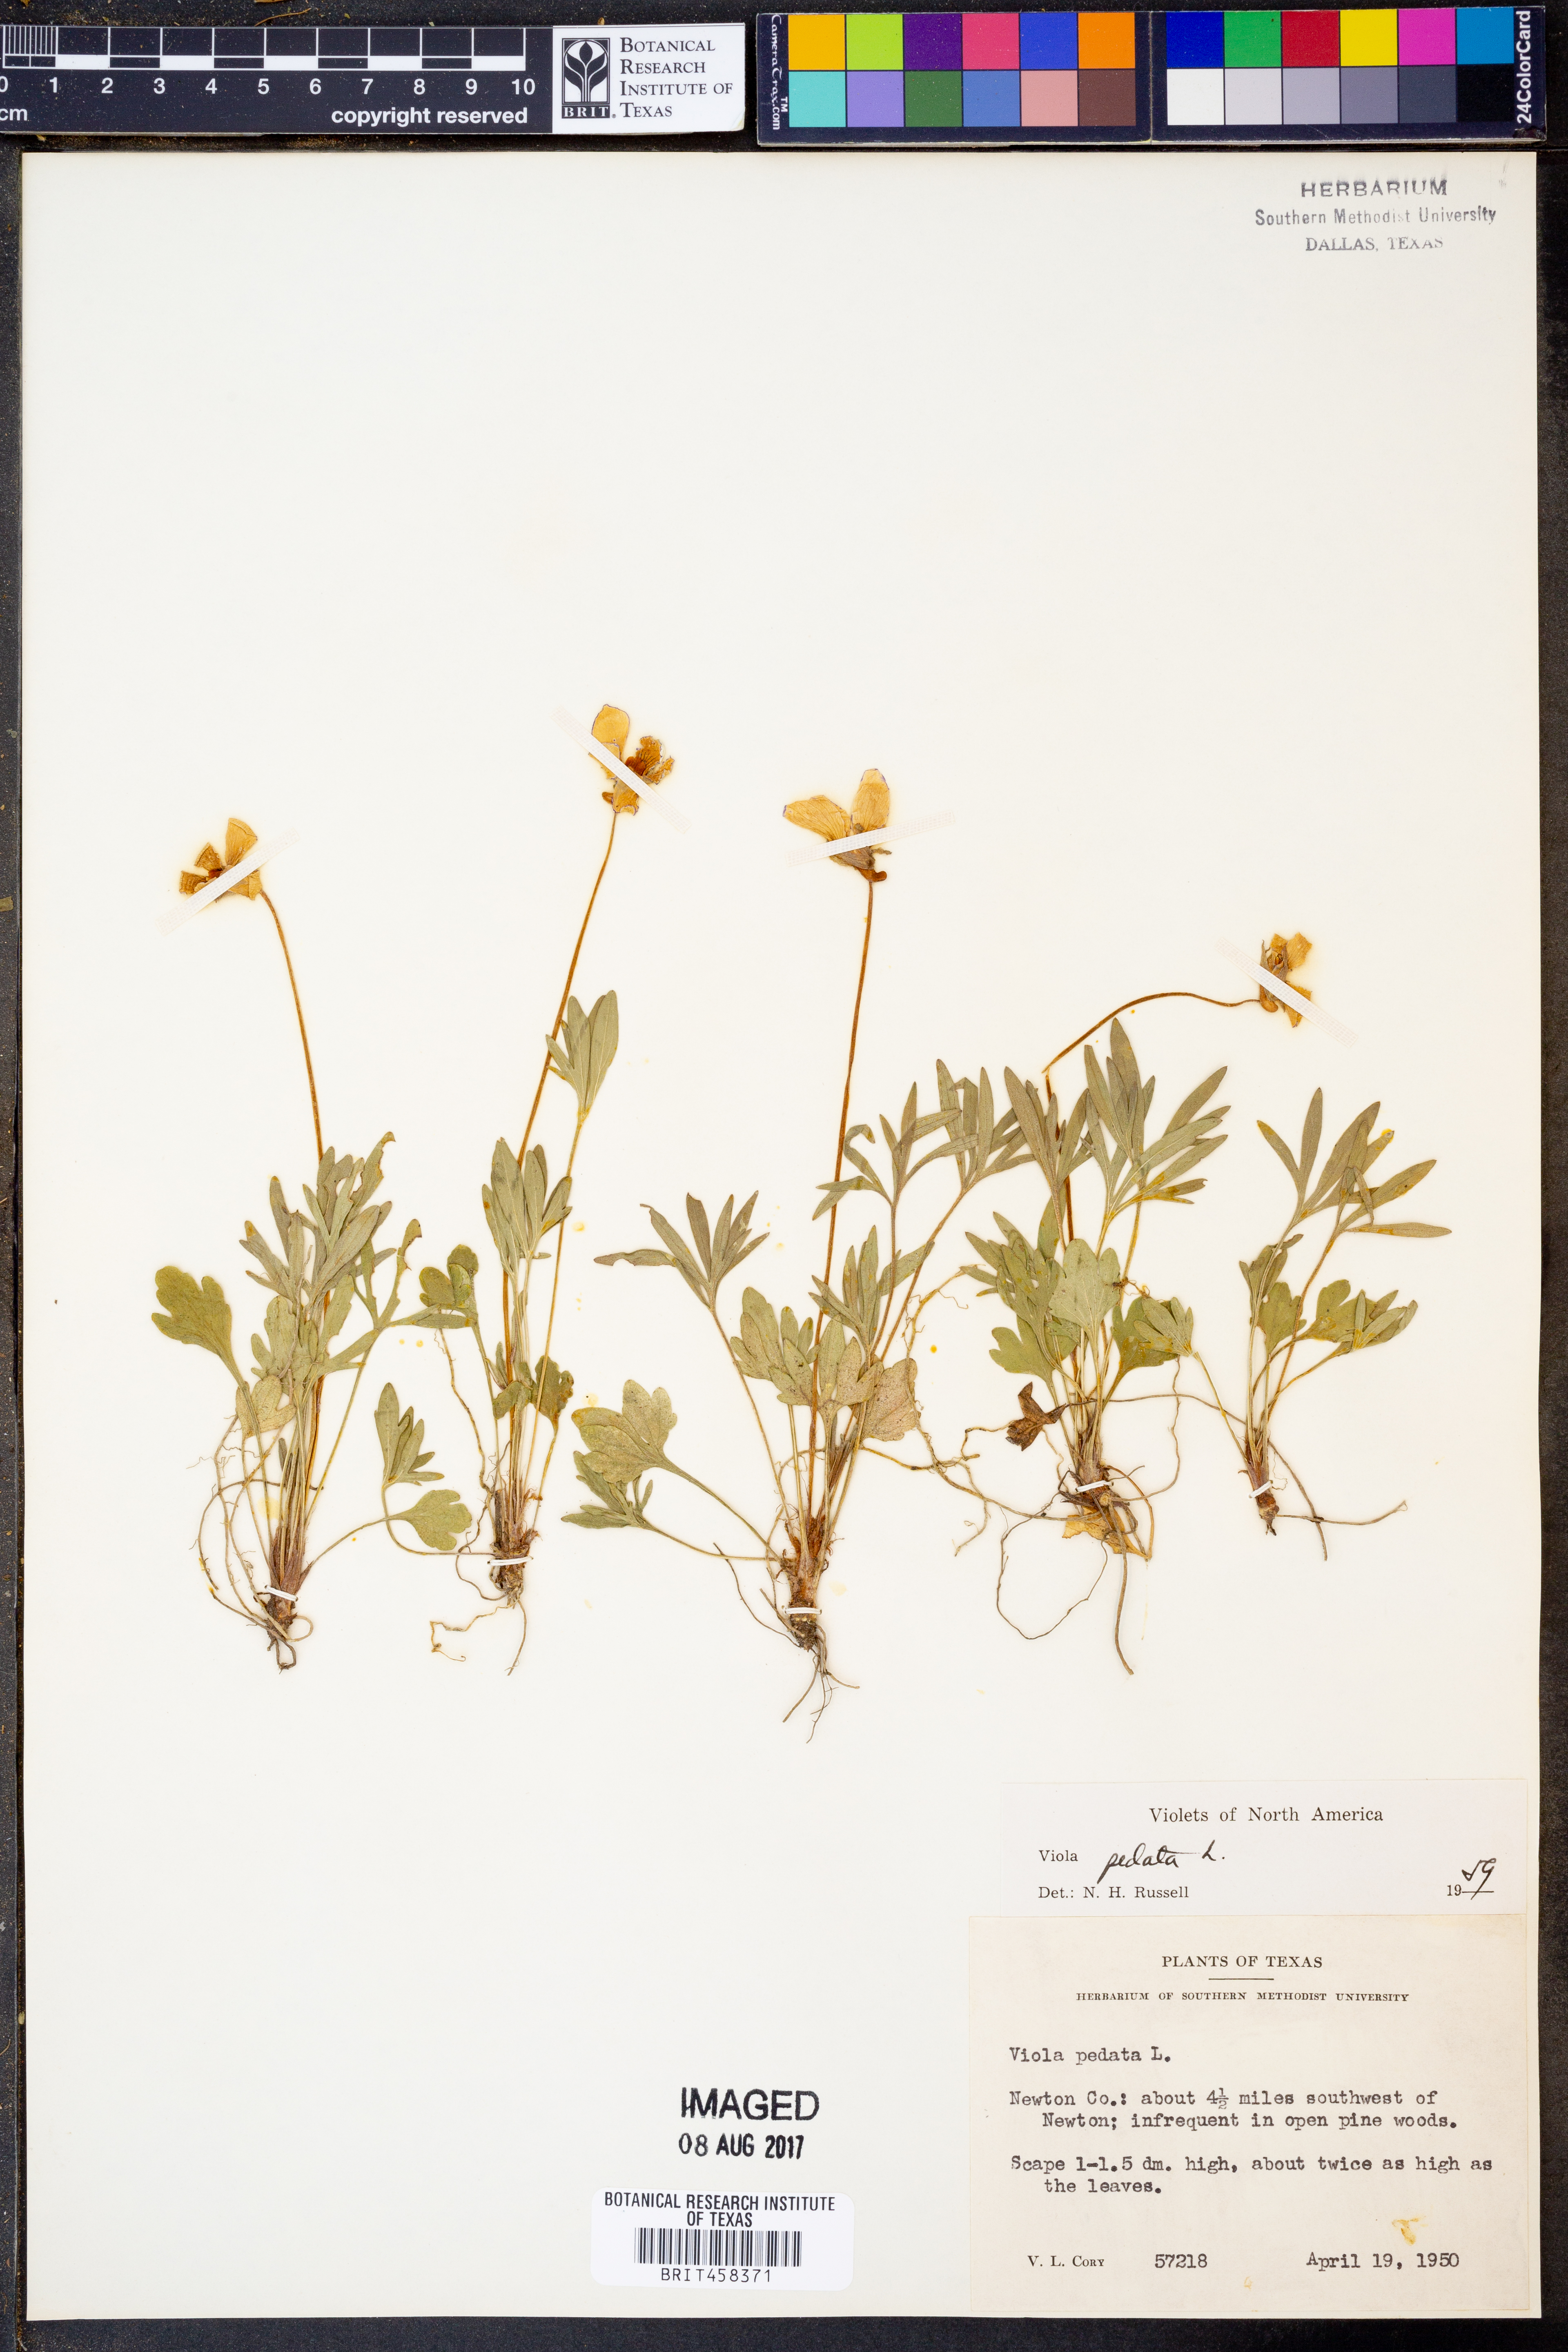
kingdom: Plantae
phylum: Tracheophyta
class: Magnoliopsida
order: Malpighiales
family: Violaceae
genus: Viola
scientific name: Viola pedata
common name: Pansy violet
